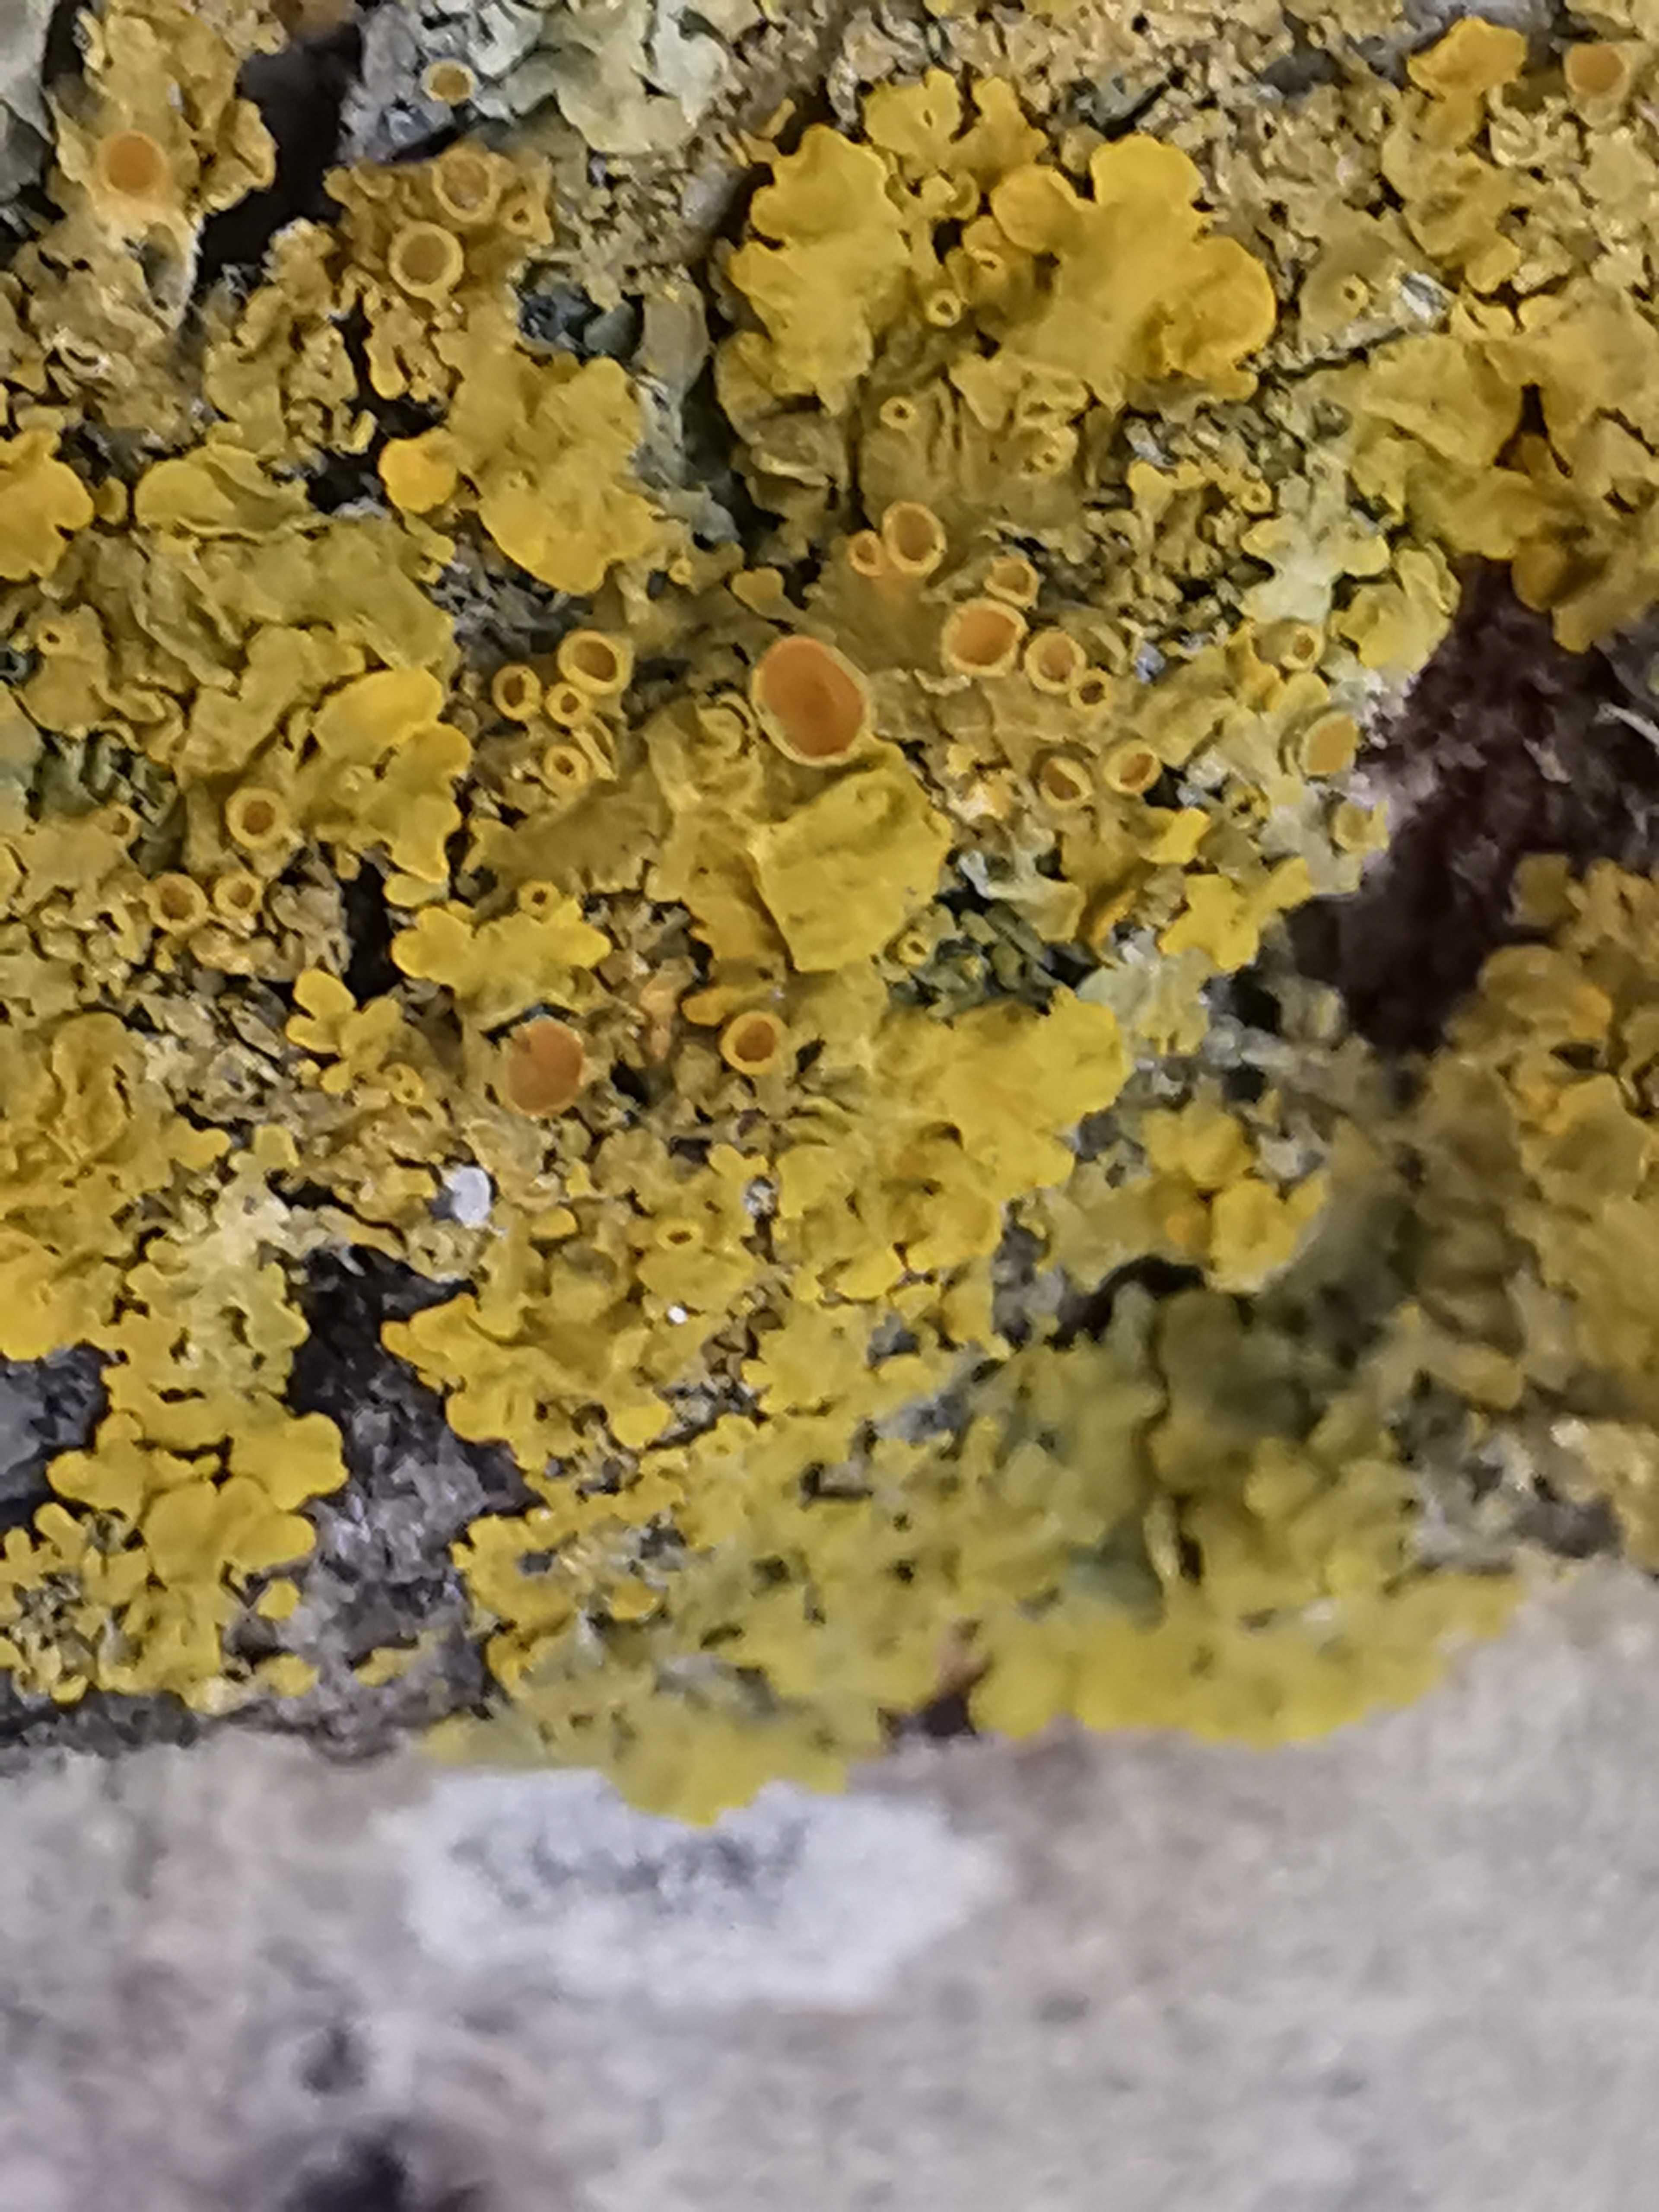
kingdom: Fungi
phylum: Ascomycota
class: Lecanoromycetes
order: Teloschistales
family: Teloschistaceae
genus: Xanthoria
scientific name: Xanthoria parietina
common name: almindelig væggelav
